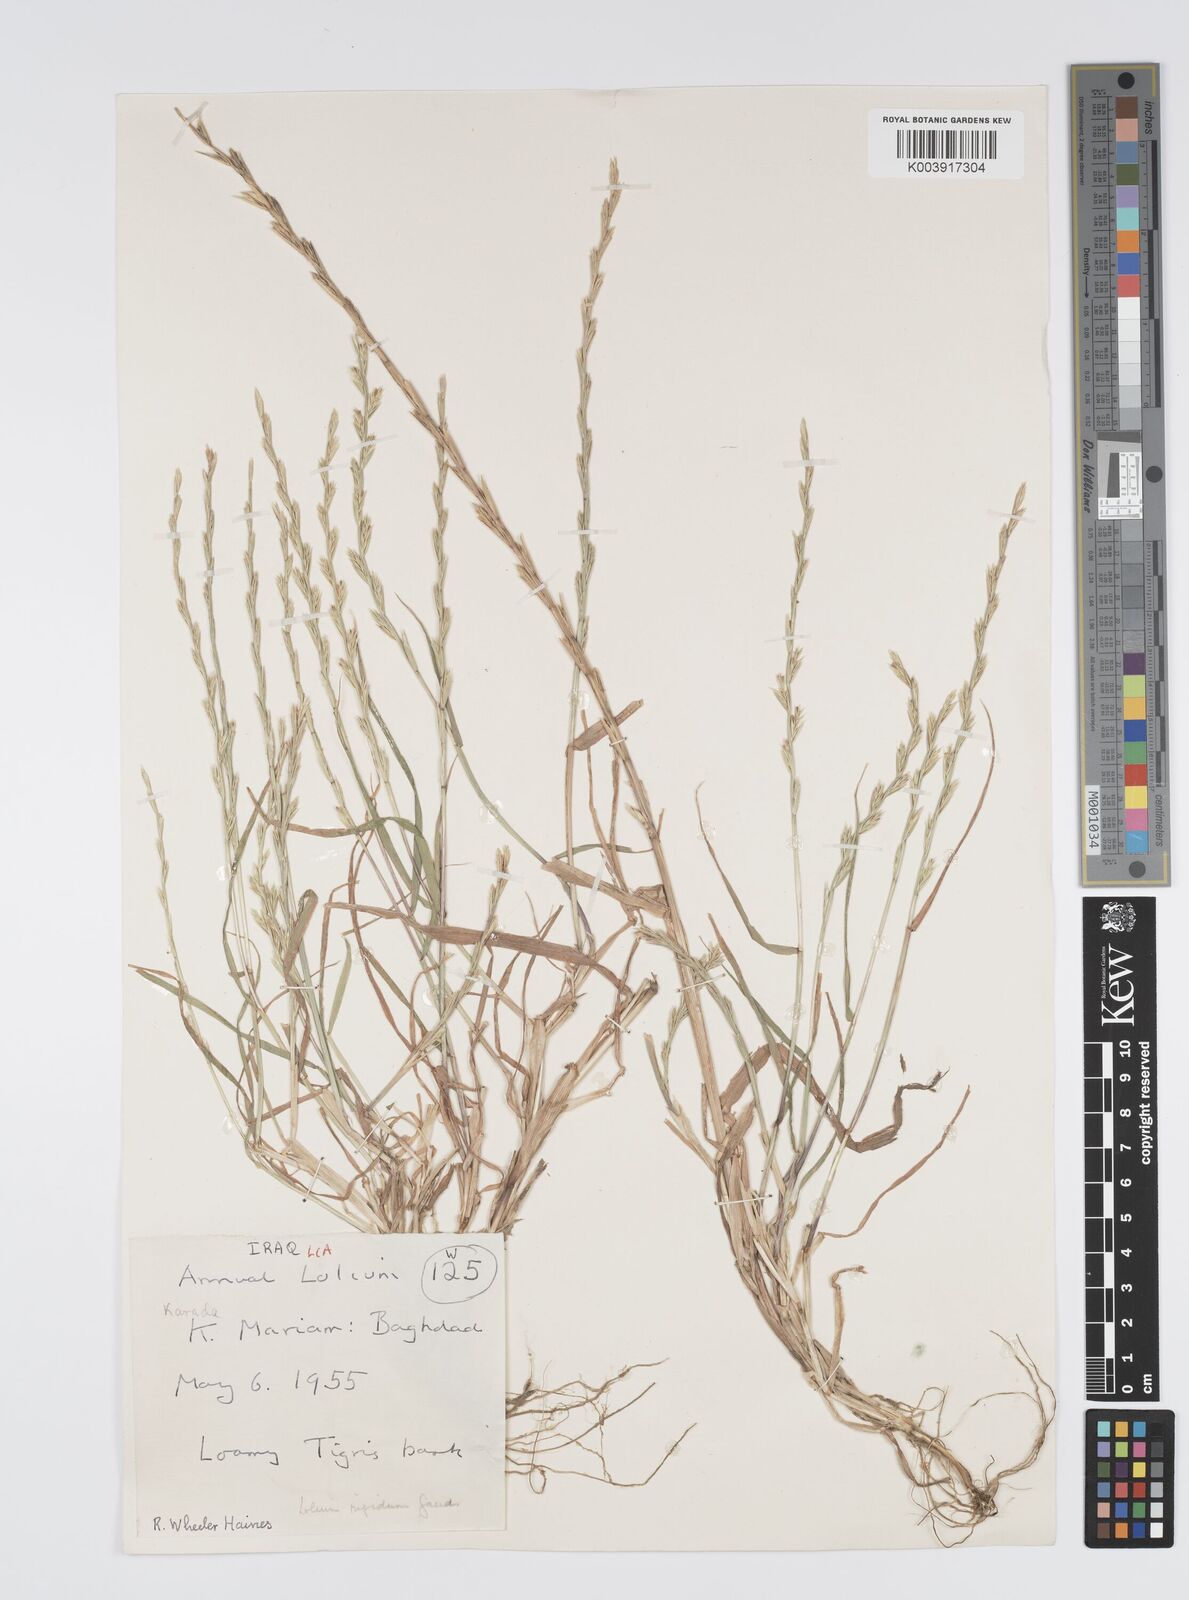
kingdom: Plantae
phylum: Tracheophyta
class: Liliopsida
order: Poales
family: Poaceae
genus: Lolium
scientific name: Lolium rigidum
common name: Wimmera ryegrass
